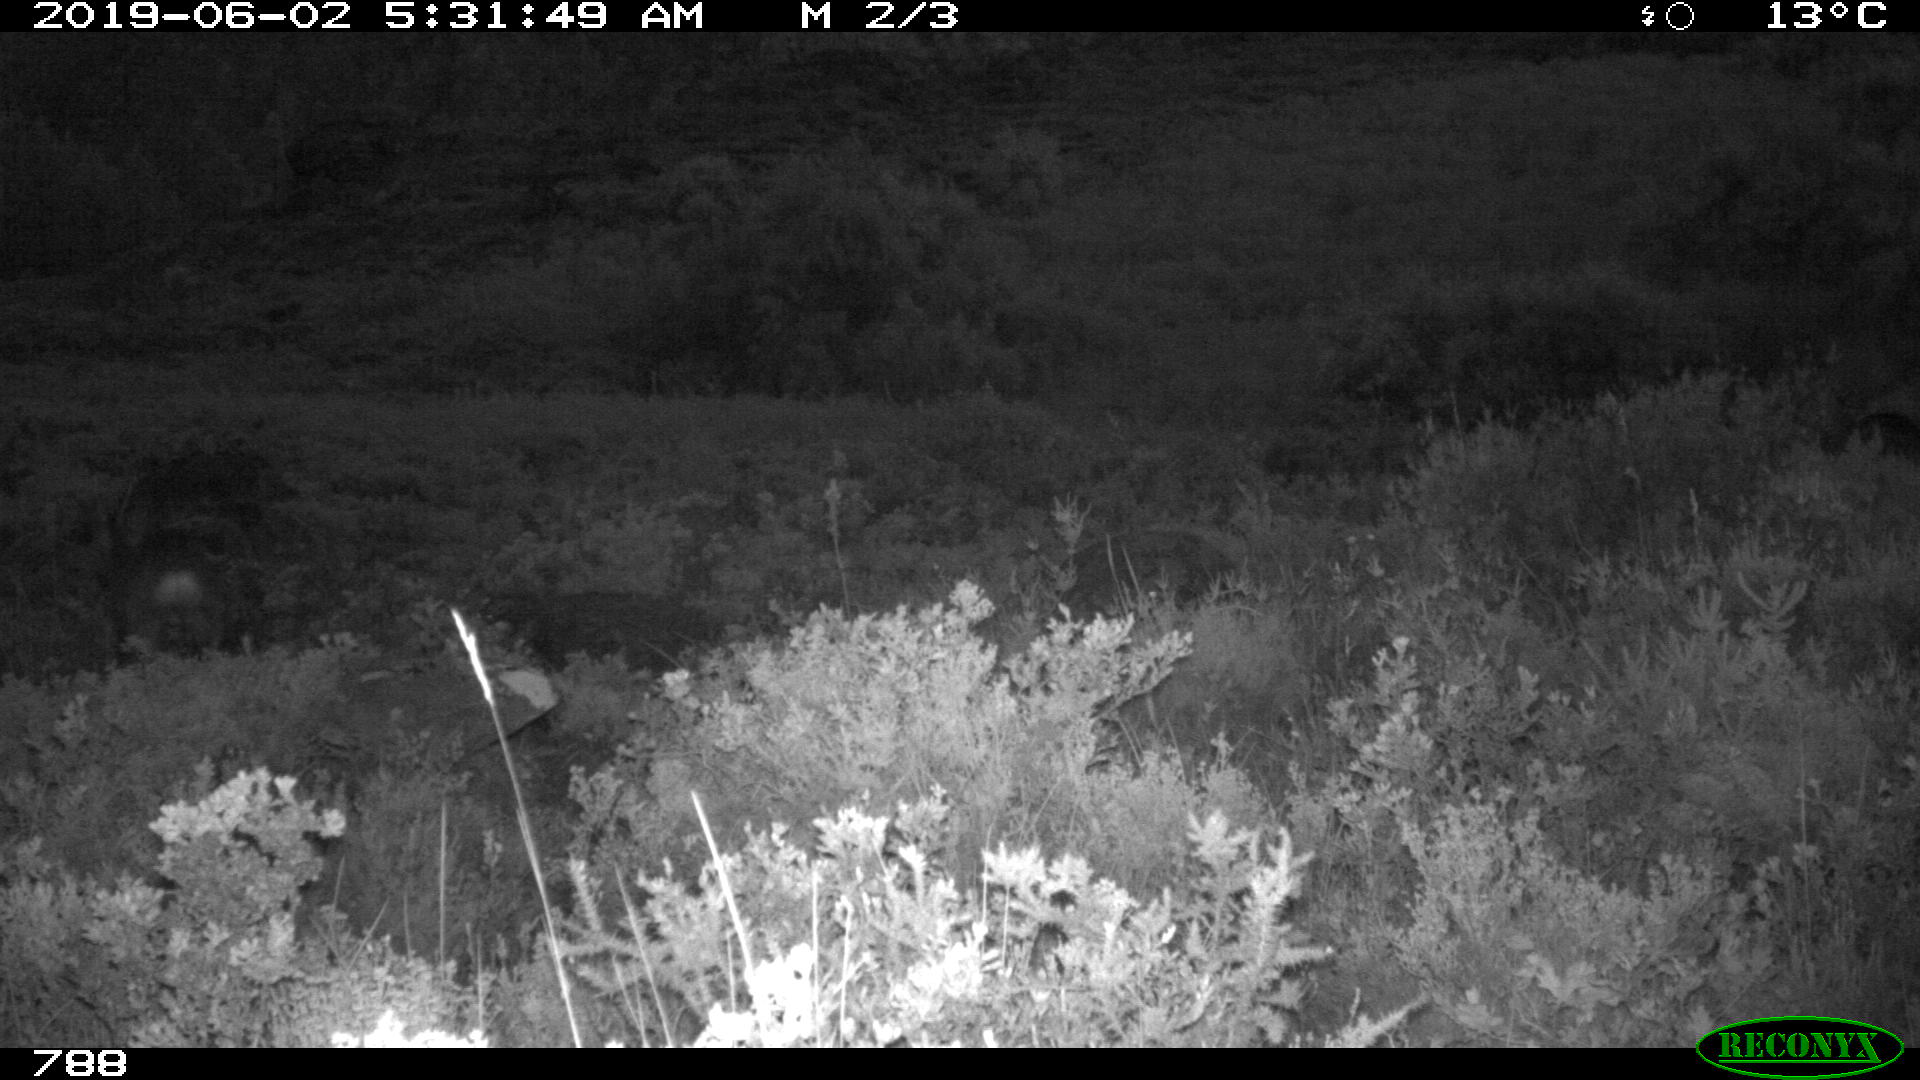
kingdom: Animalia
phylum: Chordata
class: Mammalia
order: Artiodactyla
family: Cervidae
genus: Capreolus
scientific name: Capreolus capreolus
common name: Western roe deer
